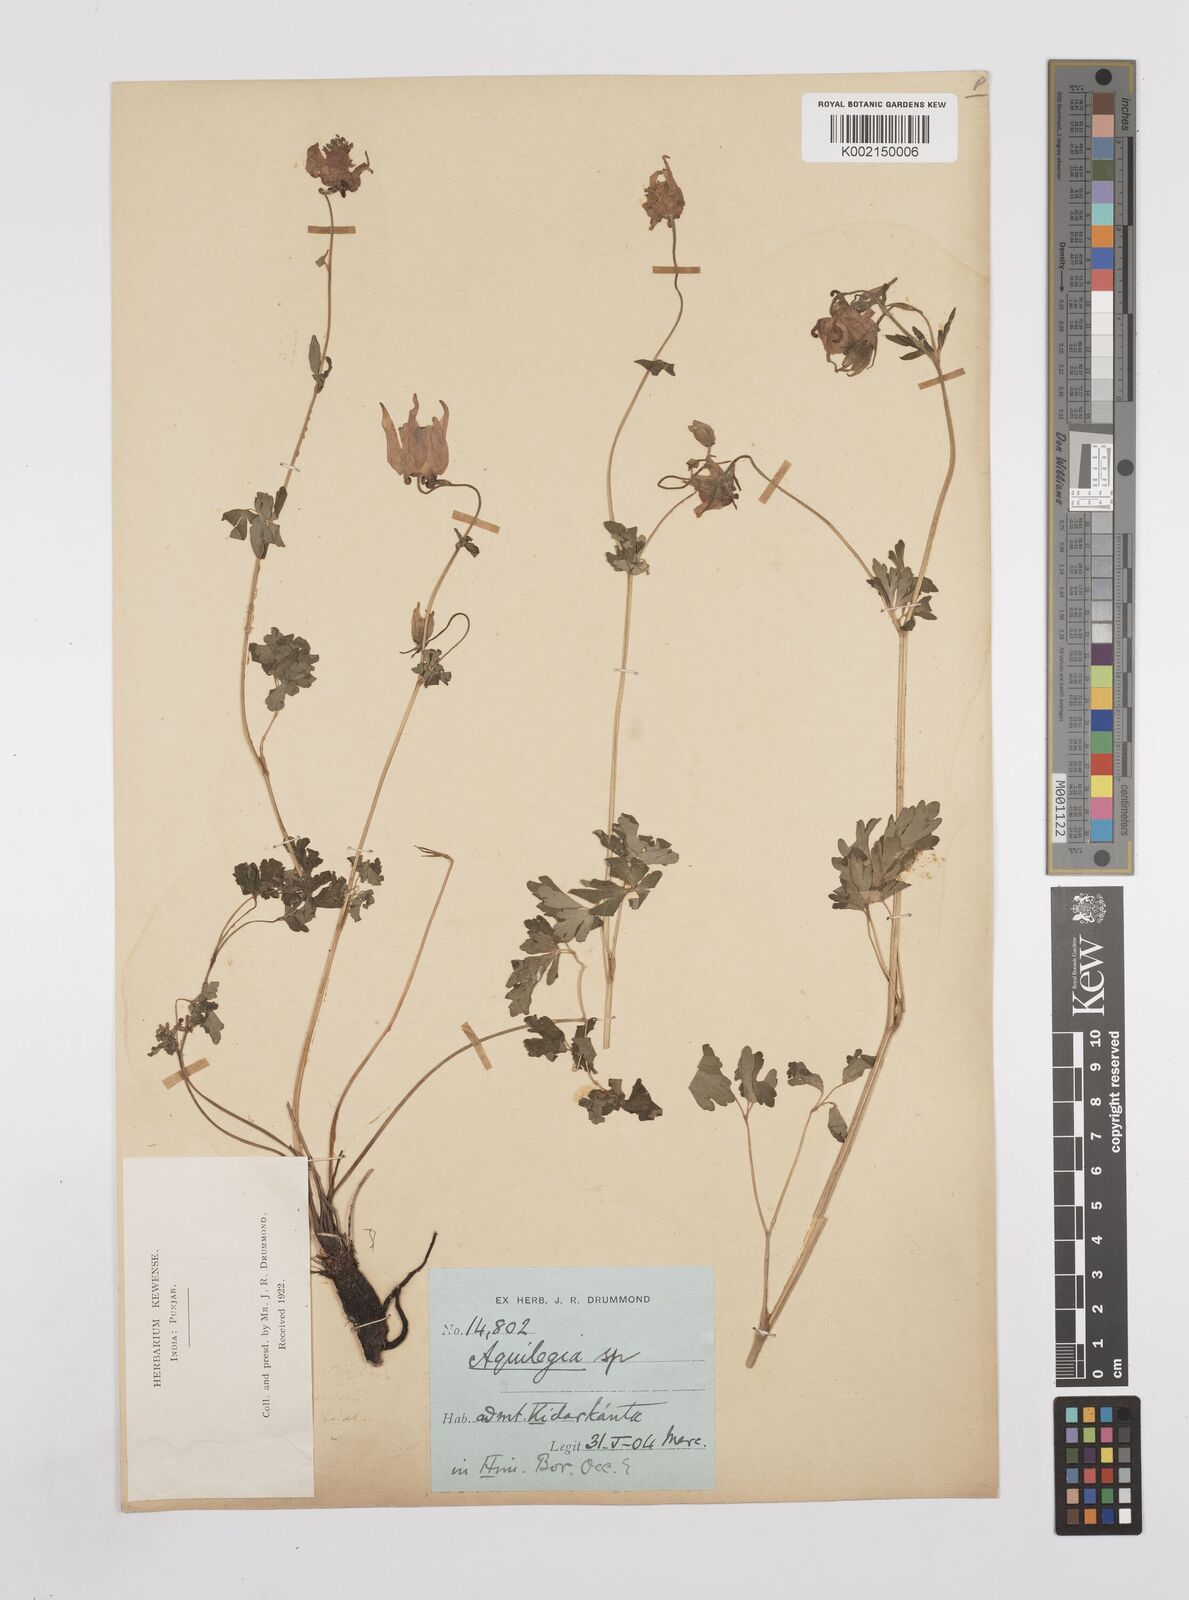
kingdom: Plantae
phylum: Tracheophyta
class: Magnoliopsida
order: Ranunculales
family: Ranunculaceae
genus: Aquilegia
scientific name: Aquilegia pubiflora
